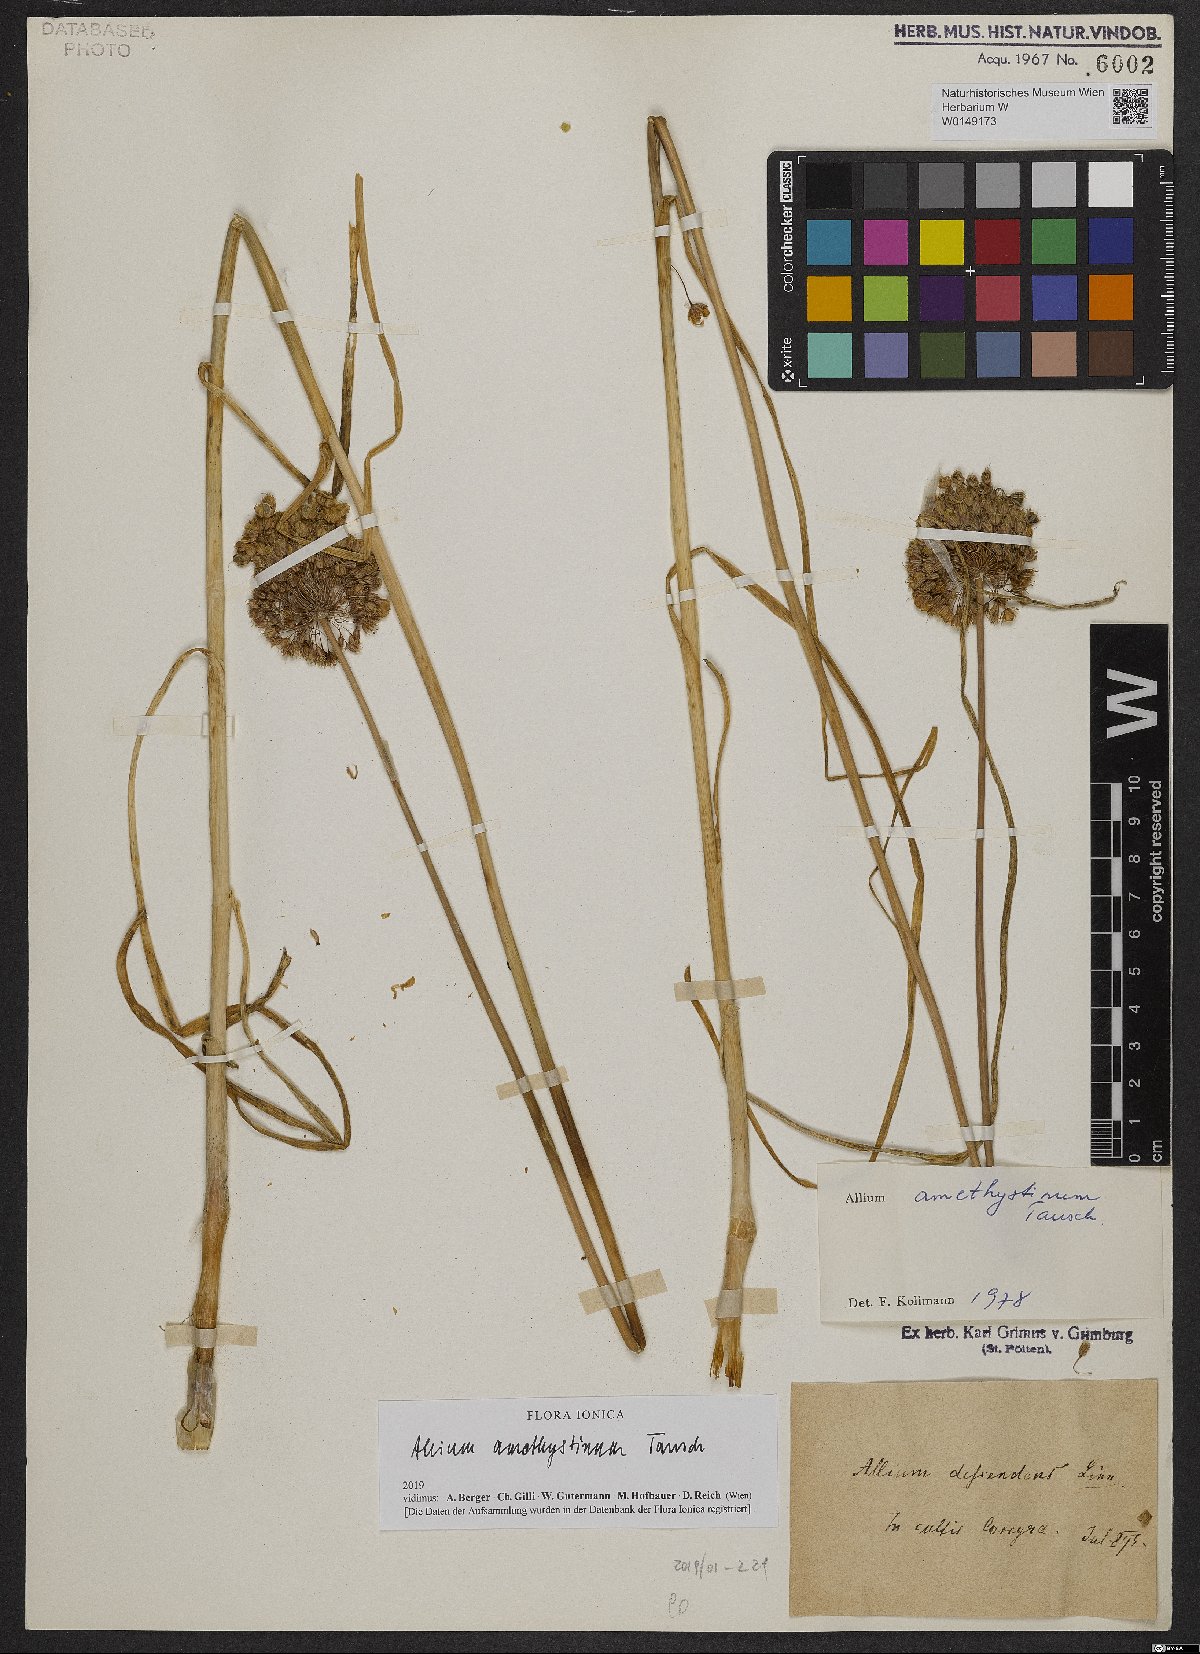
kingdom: Plantae
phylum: Tracheophyta
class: Liliopsida
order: Asparagales
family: Amaryllidaceae
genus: Allium
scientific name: Allium amethystinum
